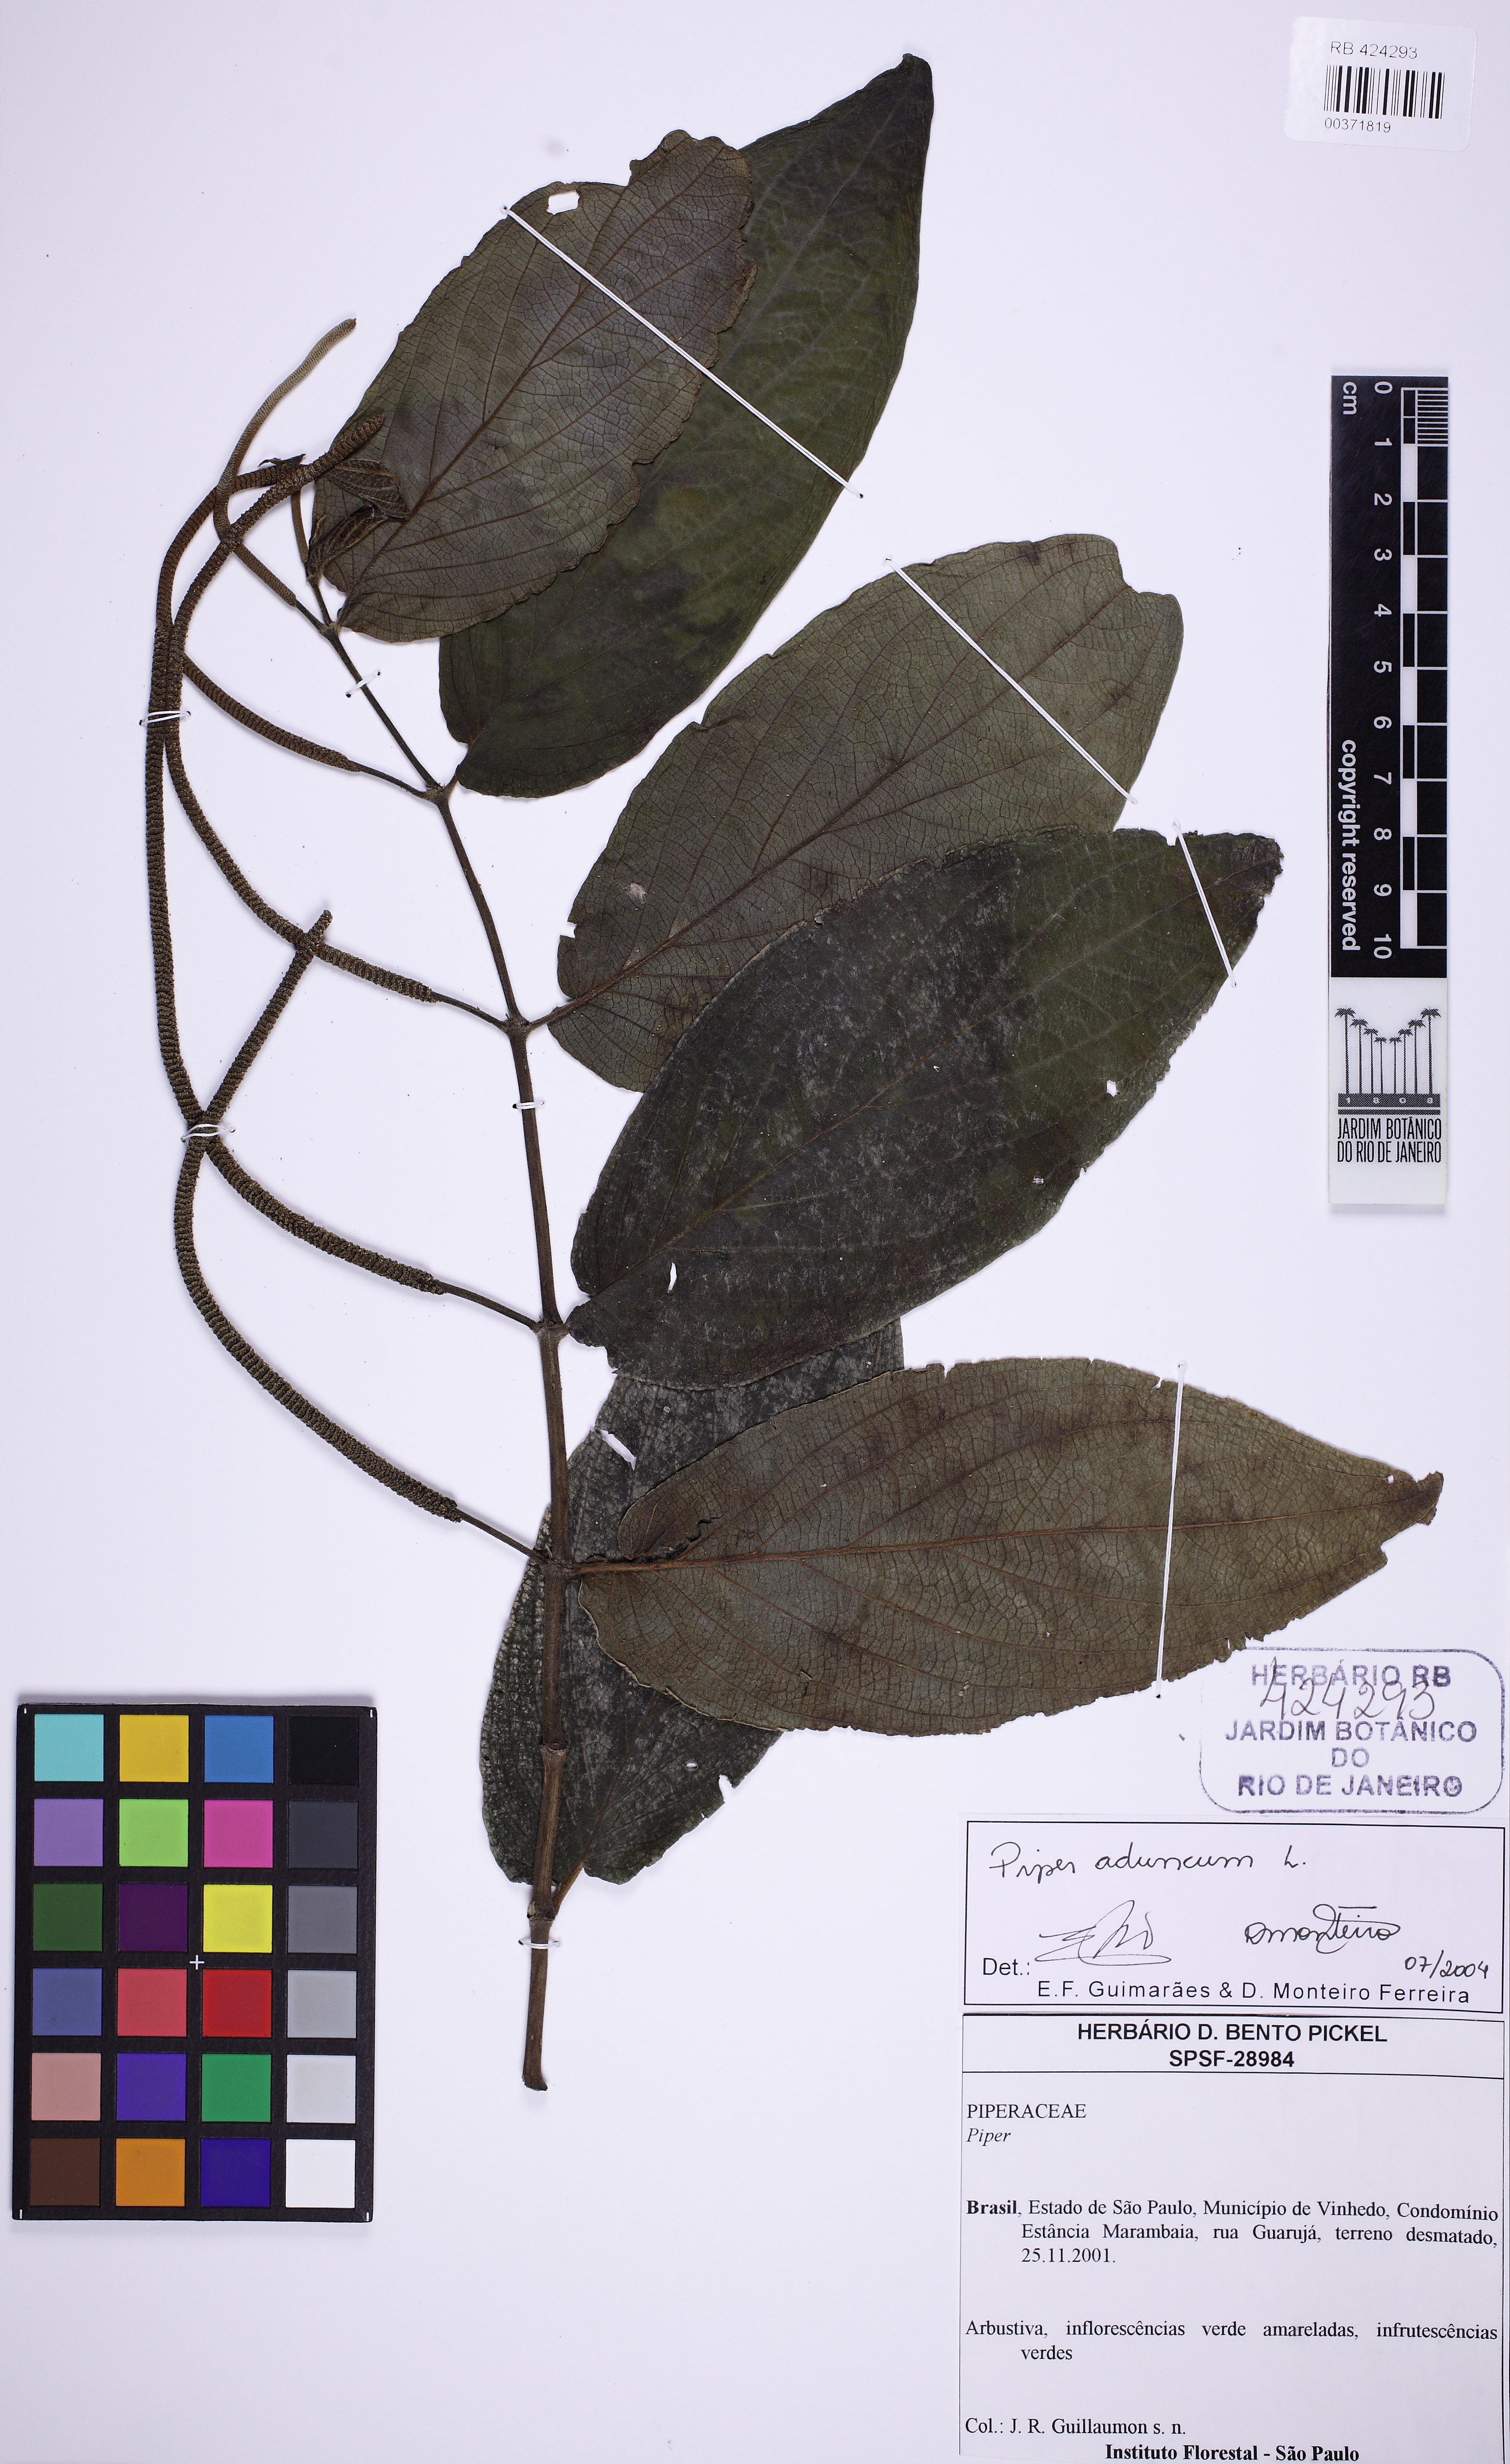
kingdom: Plantae
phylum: Tracheophyta
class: Magnoliopsida
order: Piperales
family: Piperaceae
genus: Piper
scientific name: Piper aduncum
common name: Spiked pepper
